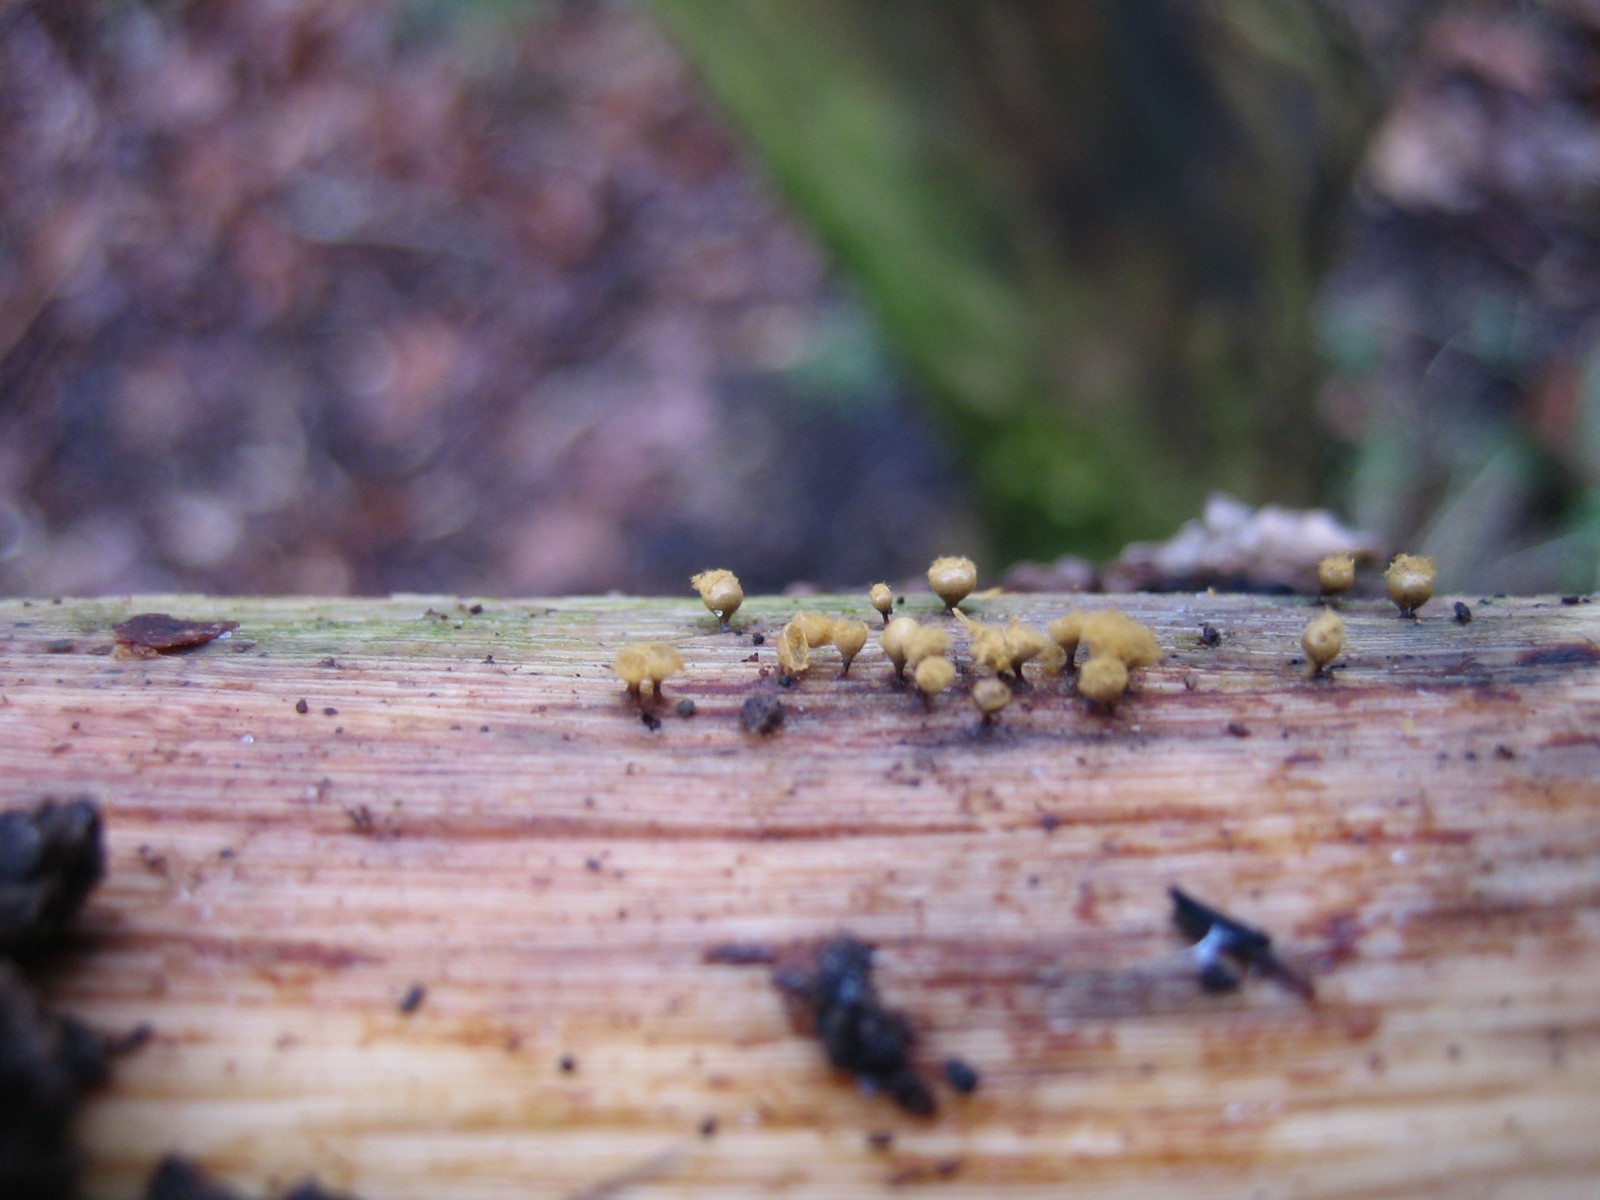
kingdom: Protozoa
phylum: Mycetozoa
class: Myxomycetes
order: Trichiales
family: Trichiaceae
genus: Trichia
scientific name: Trichia
